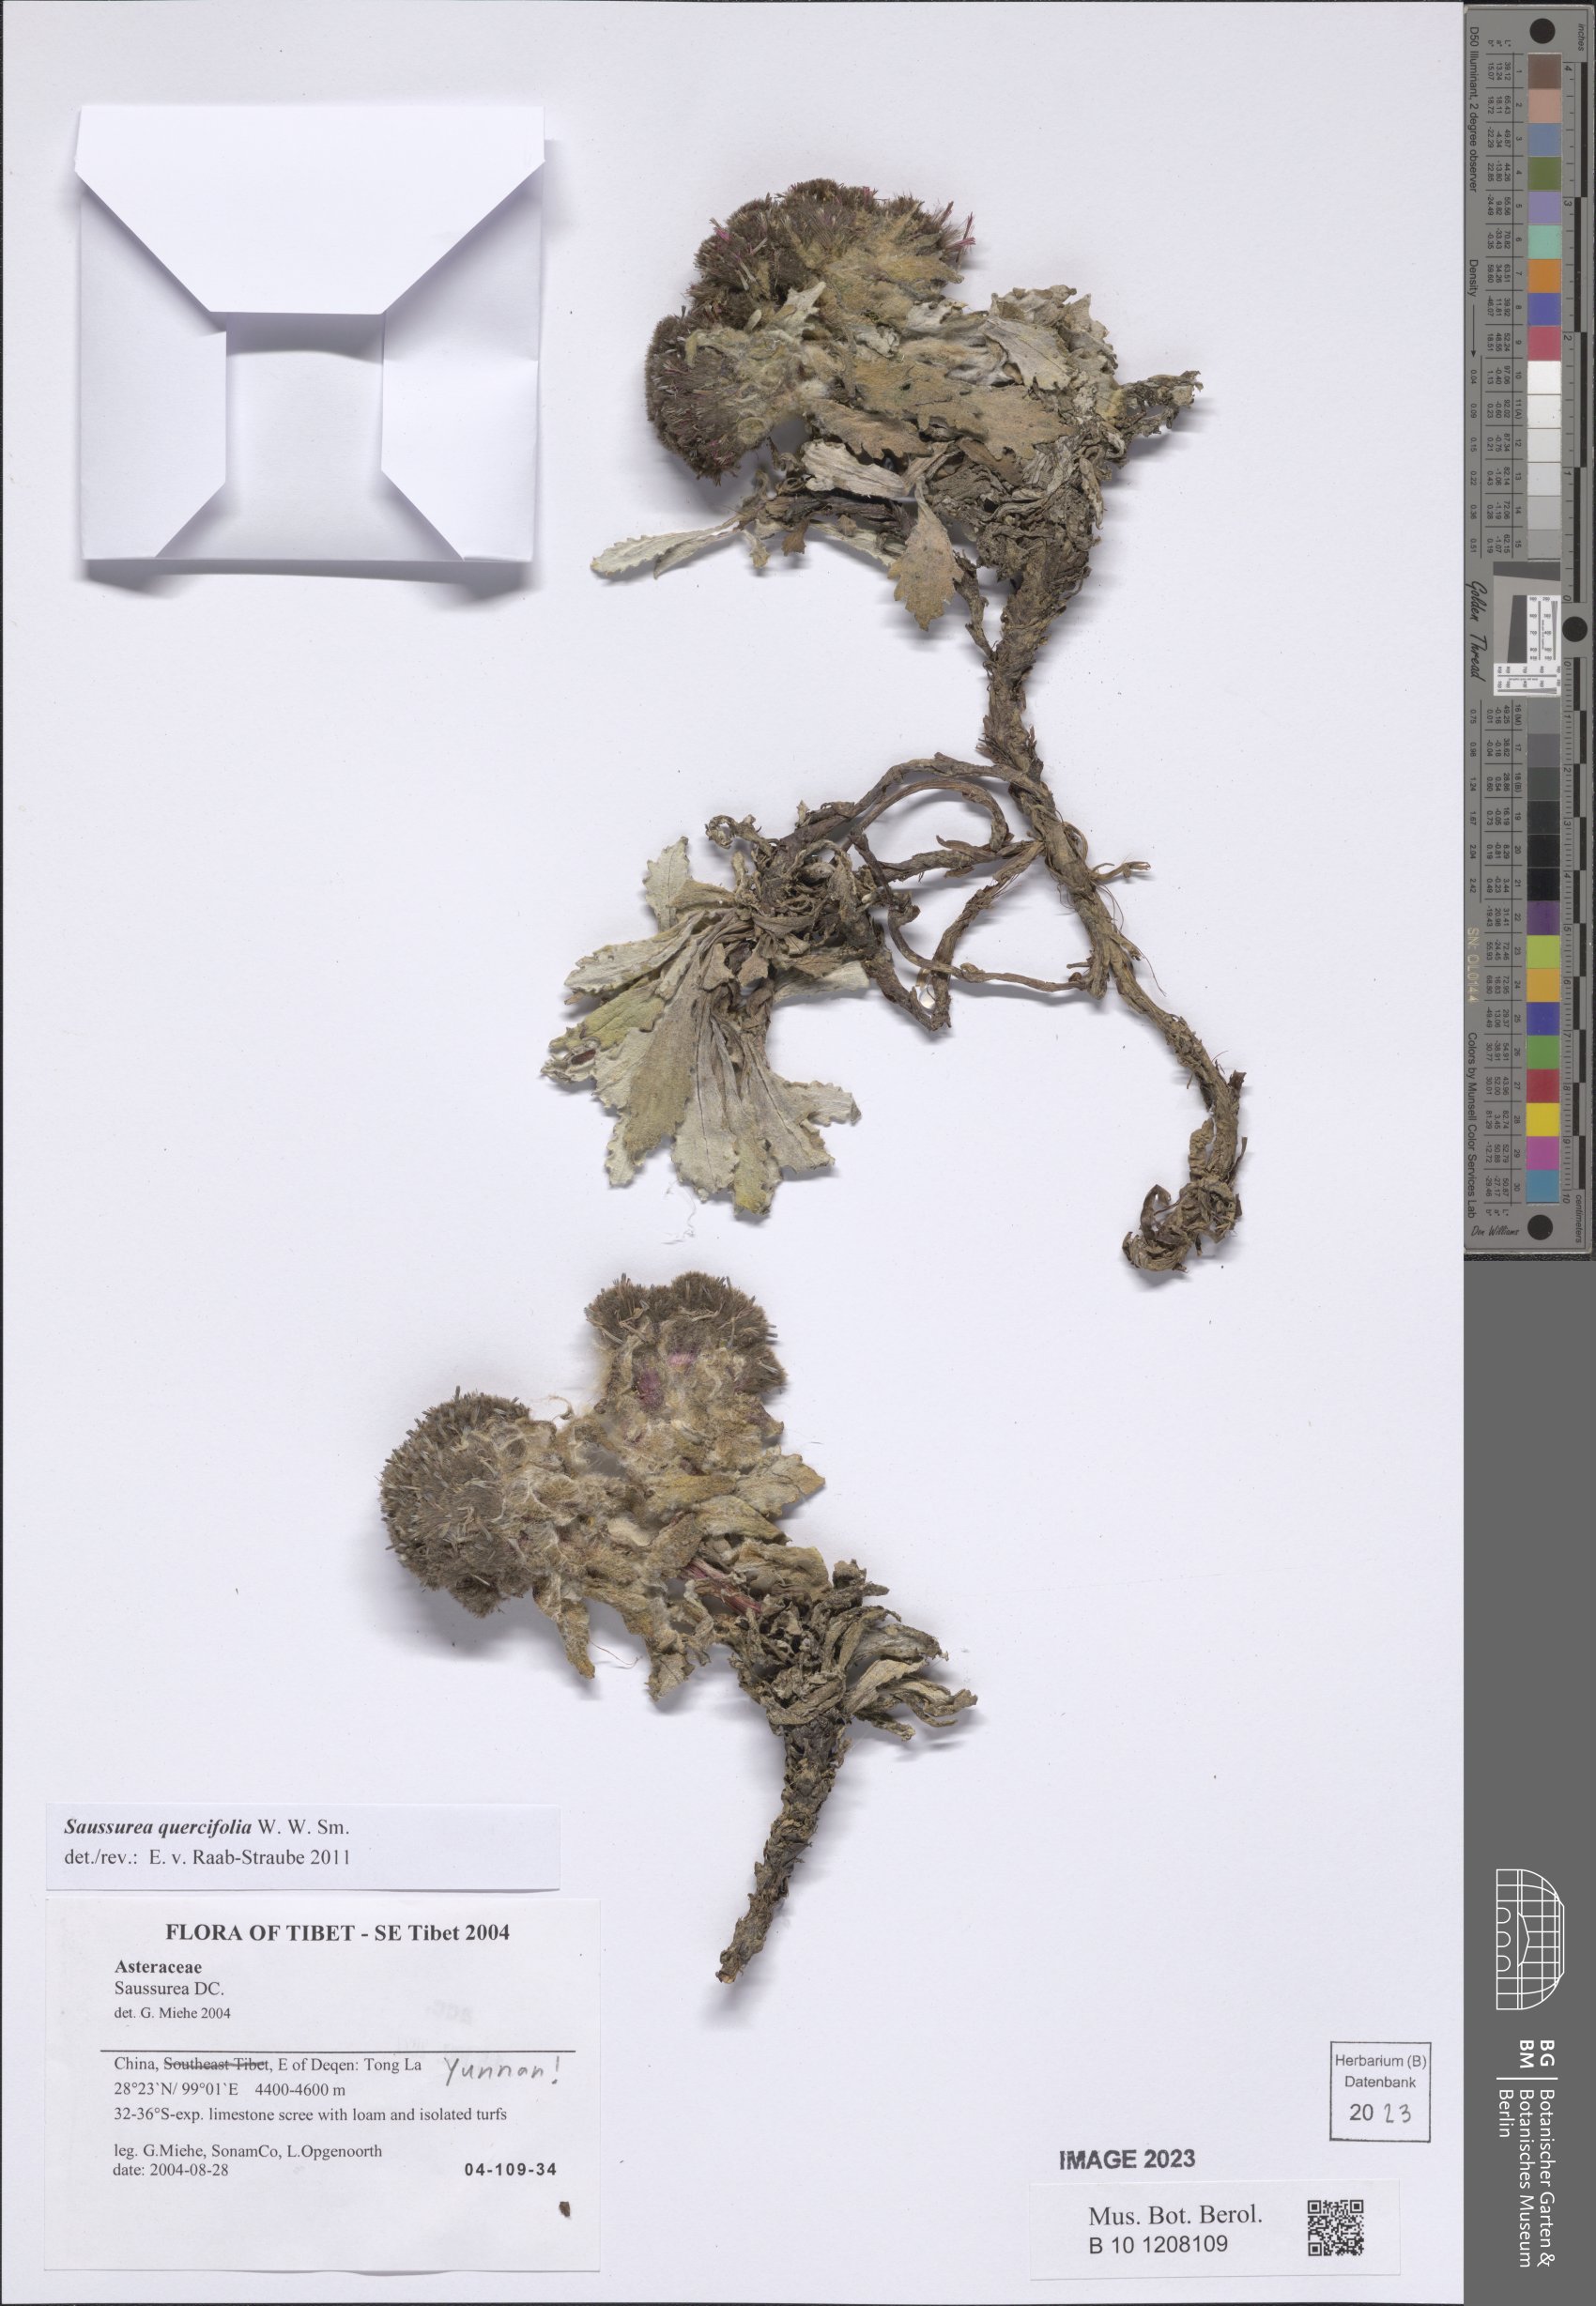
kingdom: Plantae
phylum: Tracheophyta
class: Magnoliopsida
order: Asterales
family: Asteraceae
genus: Saussurea
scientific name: Saussurea quercifolia
